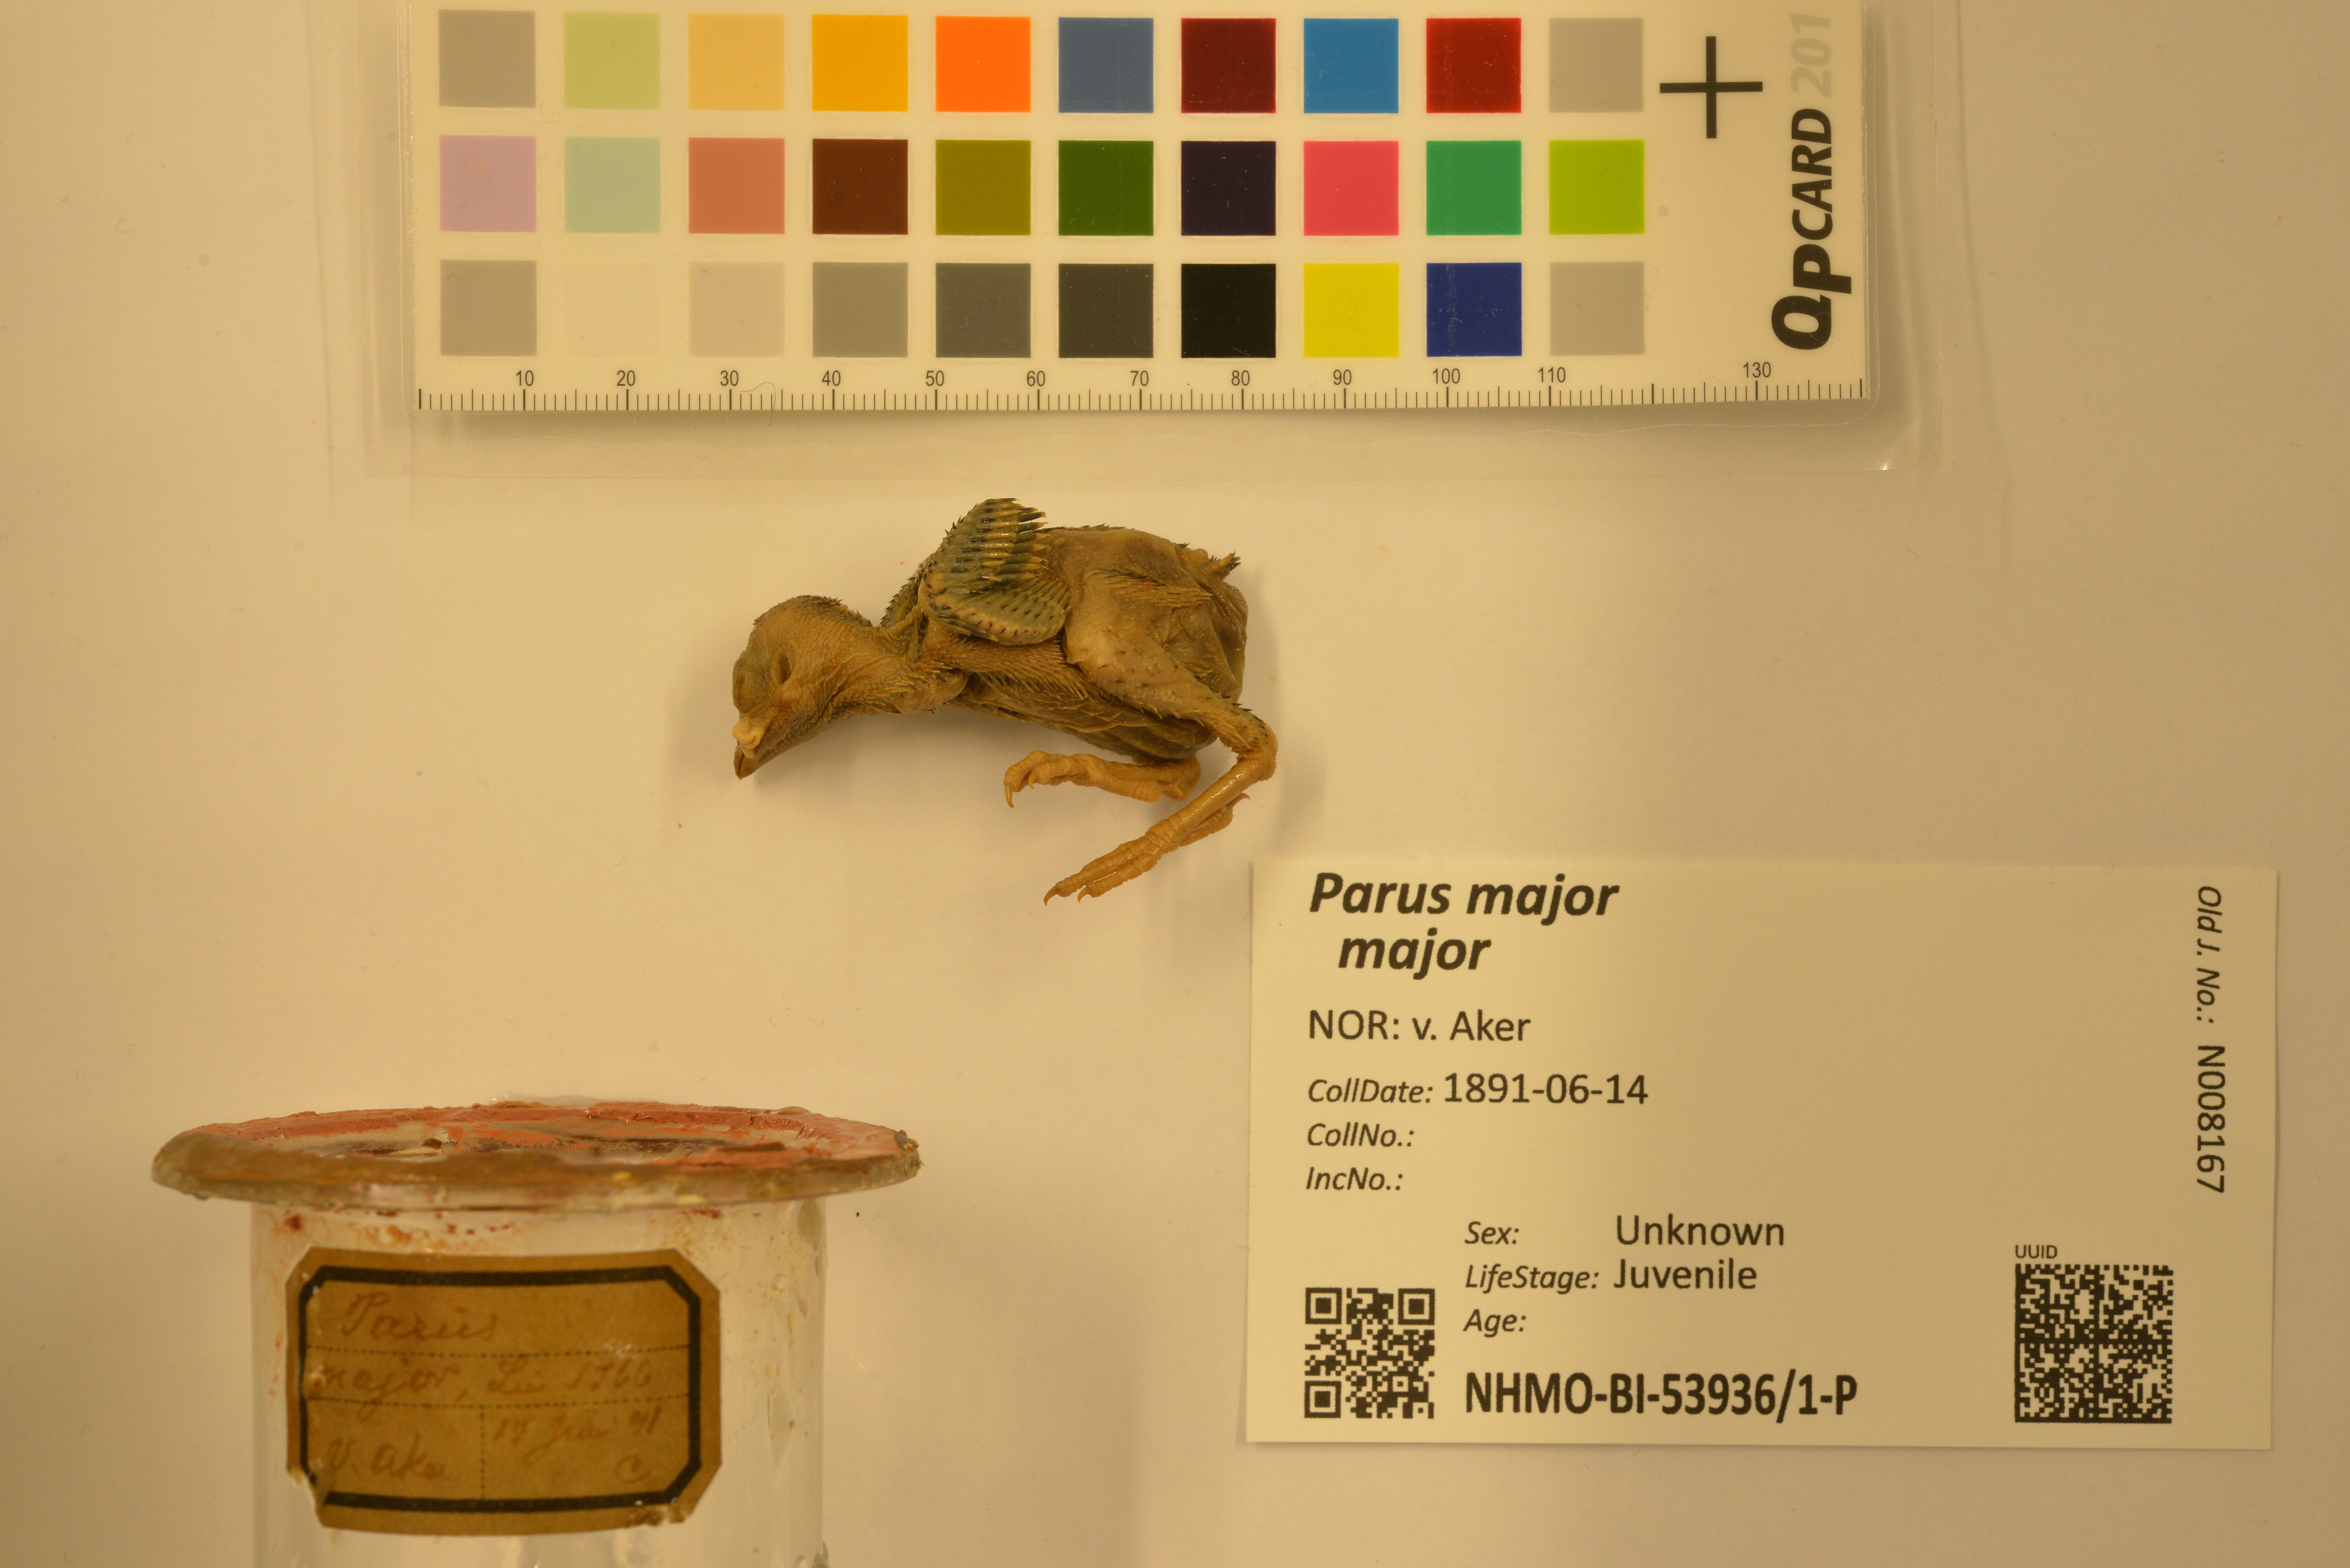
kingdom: Animalia
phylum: Chordata
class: Aves
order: Passeriformes
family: Paridae
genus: Parus
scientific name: Parus major
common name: Great tit
